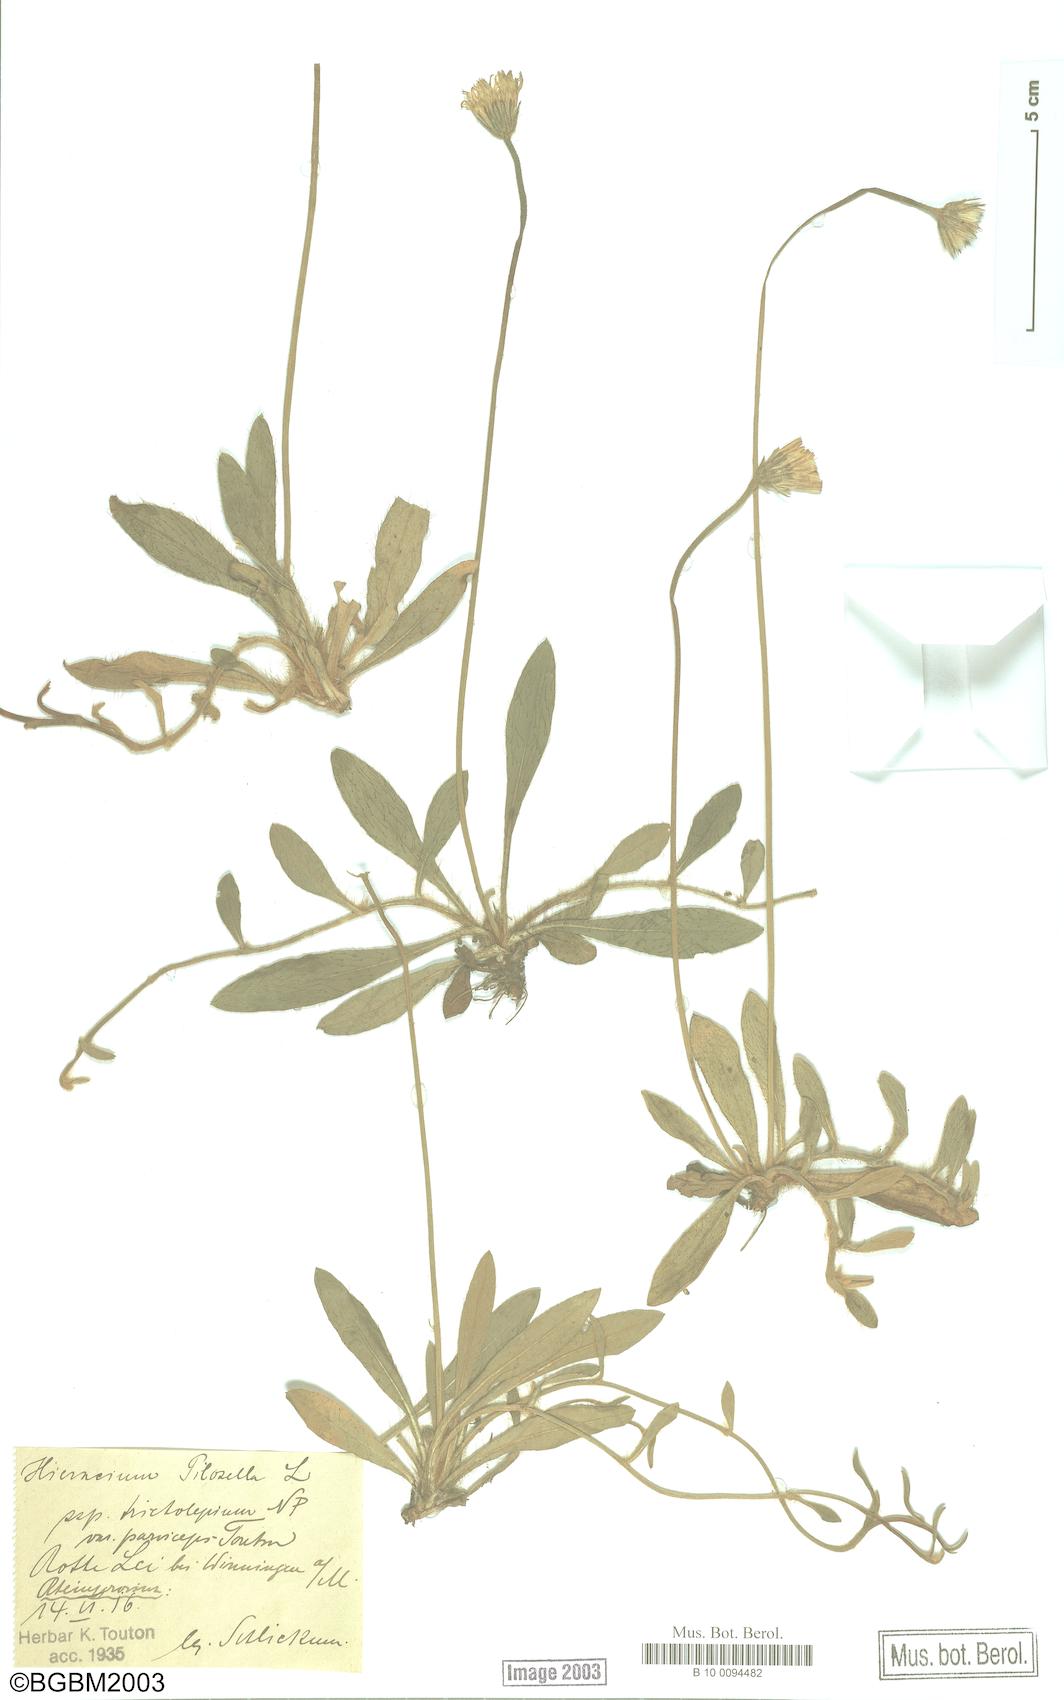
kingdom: Plantae
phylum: Tracheophyta
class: Magnoliopsida
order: Asterales
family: Asteraceae
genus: Pilosella
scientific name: Pilosella officinarum
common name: Mouse-ear hawkweed
